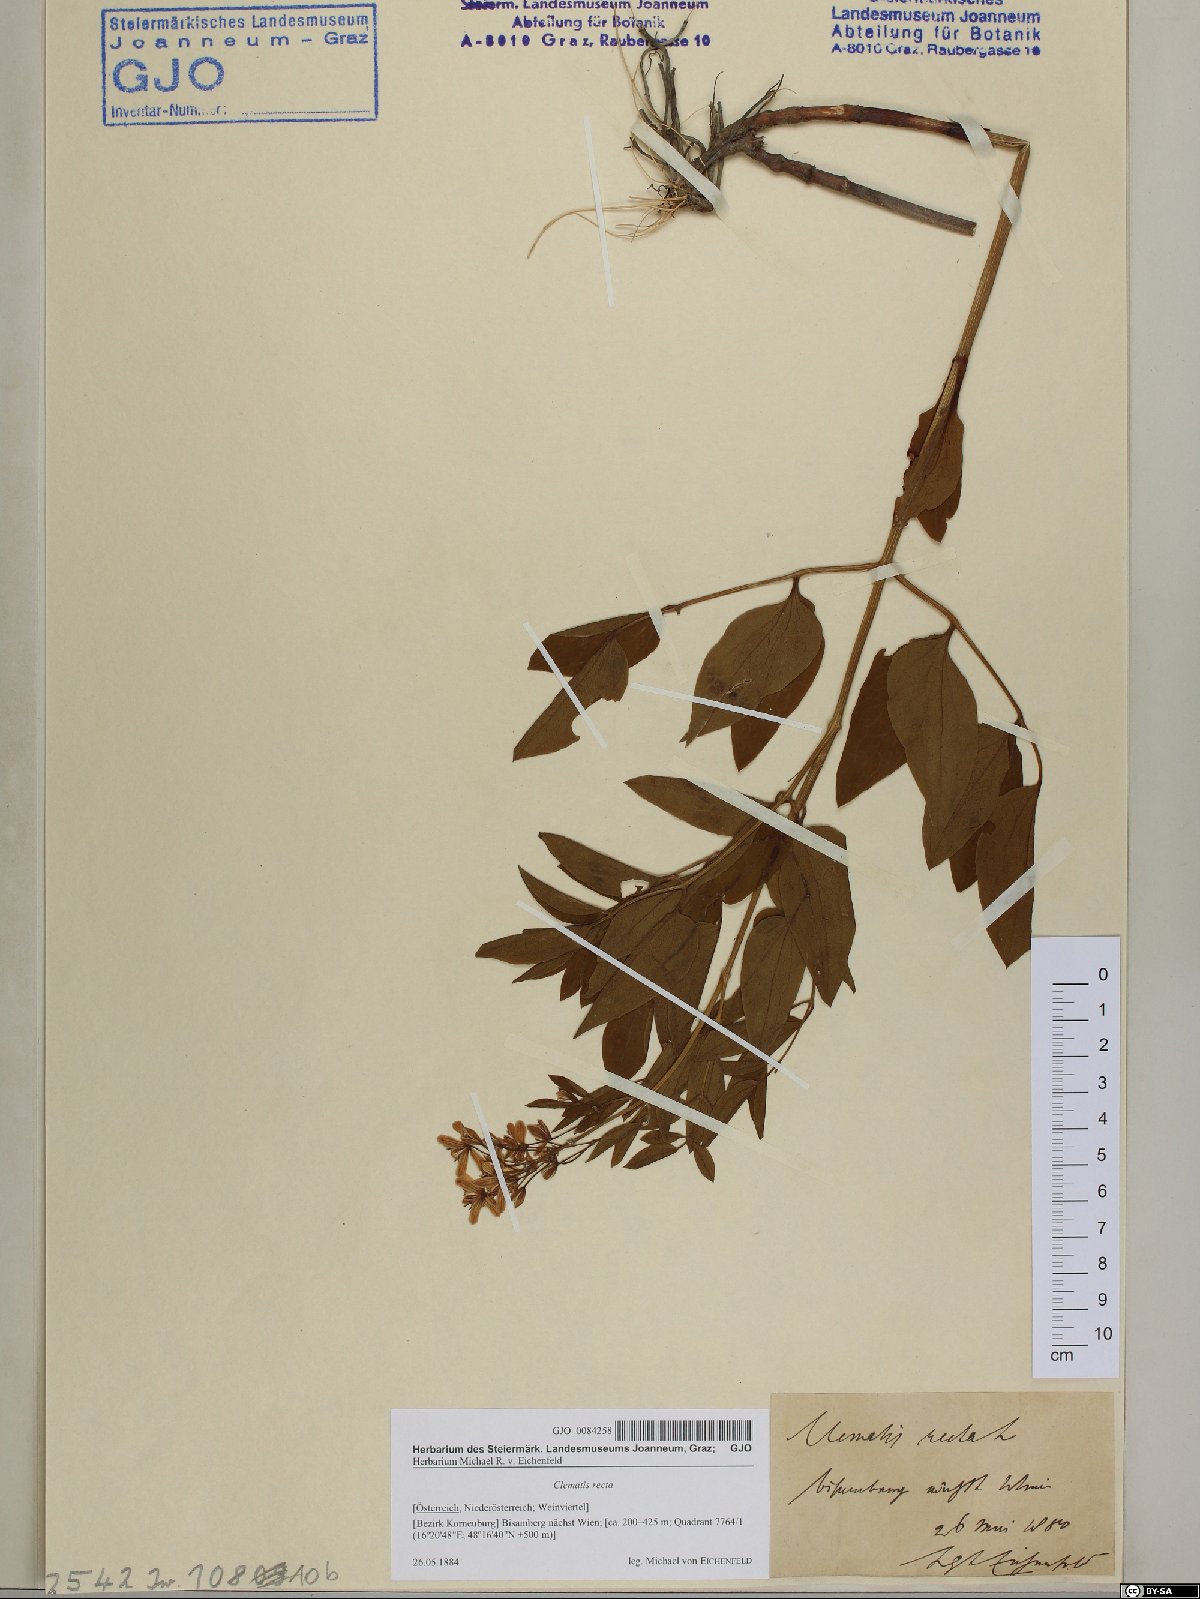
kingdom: Plantae
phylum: Tracheophyta
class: Magnoliopsida
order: Ranunculales
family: Ranunculaceae
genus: Clematis
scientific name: Clematis recta
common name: Ground clematis
